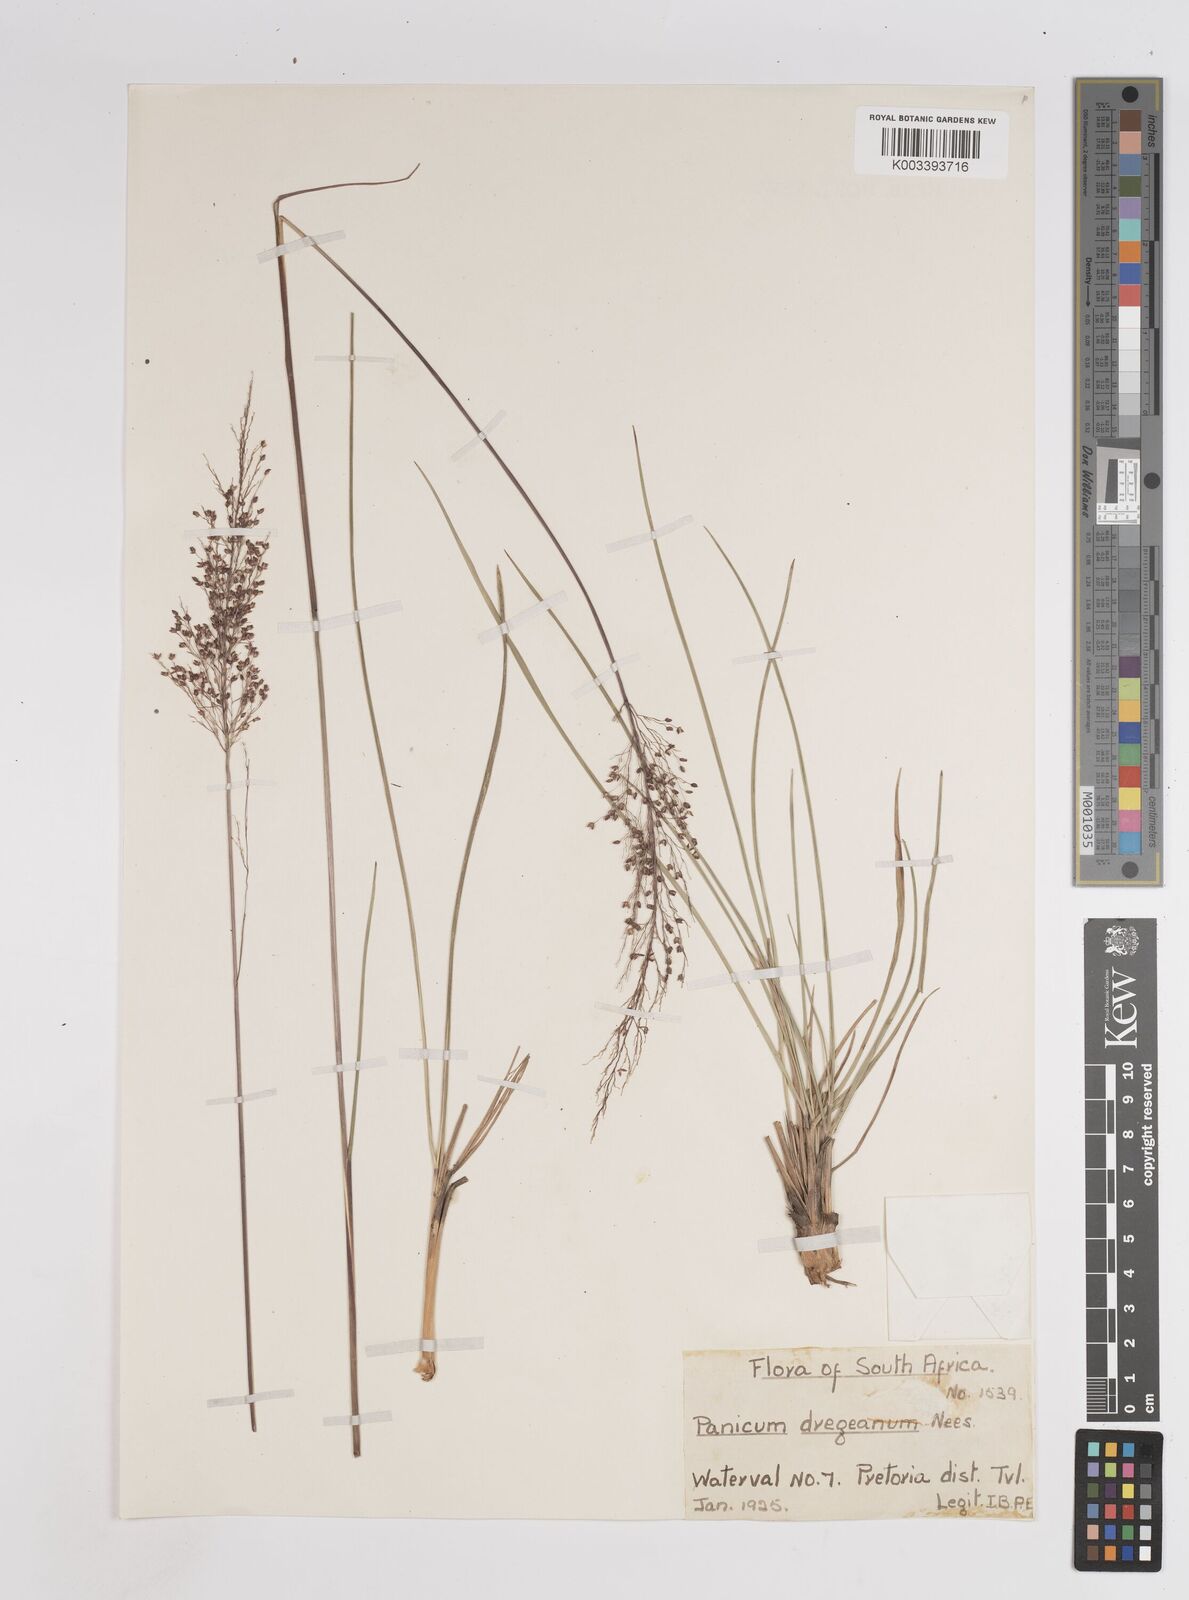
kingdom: Plantae
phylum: Tracheophyta
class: Liliopsida
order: Poales
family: Poaceae
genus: Panicum
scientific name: Panicum dregeanum
